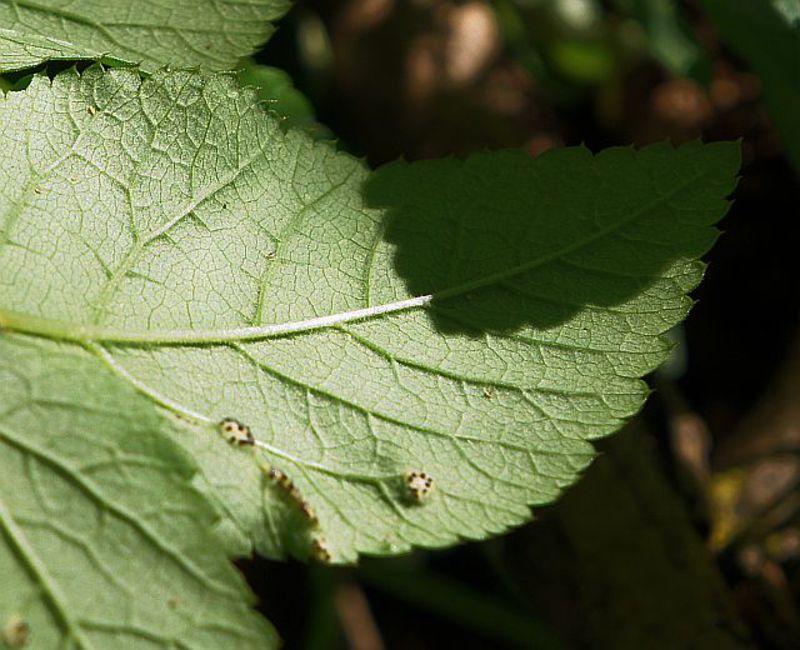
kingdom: Fungi
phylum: Basidiomycota
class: Pucciniomycetes
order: Pucciniales
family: Pucciniaceae
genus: Puccinia
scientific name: Puccinia aegopodii
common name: Ground elder rust
